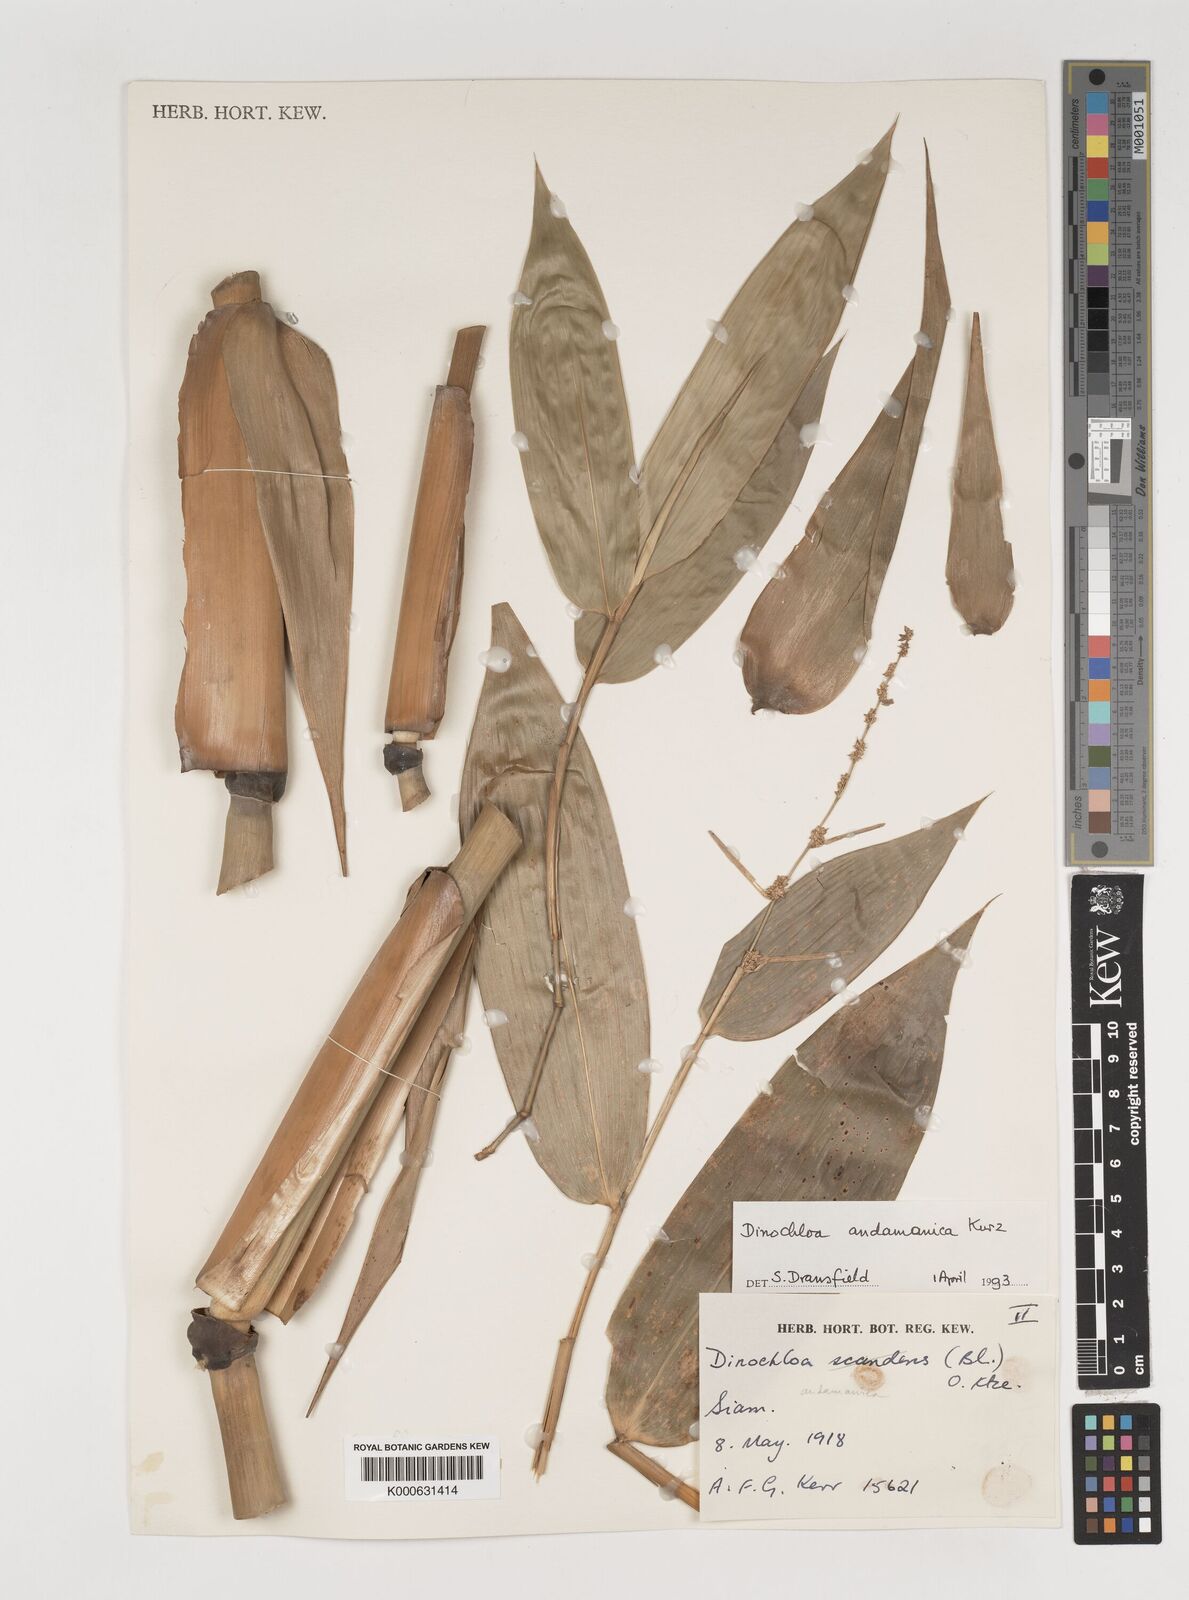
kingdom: Plantae
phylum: Tracheophyta
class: Liliopsida
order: Poales
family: Poaceae
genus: Dinochloa
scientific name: Dinochloa andamanica
